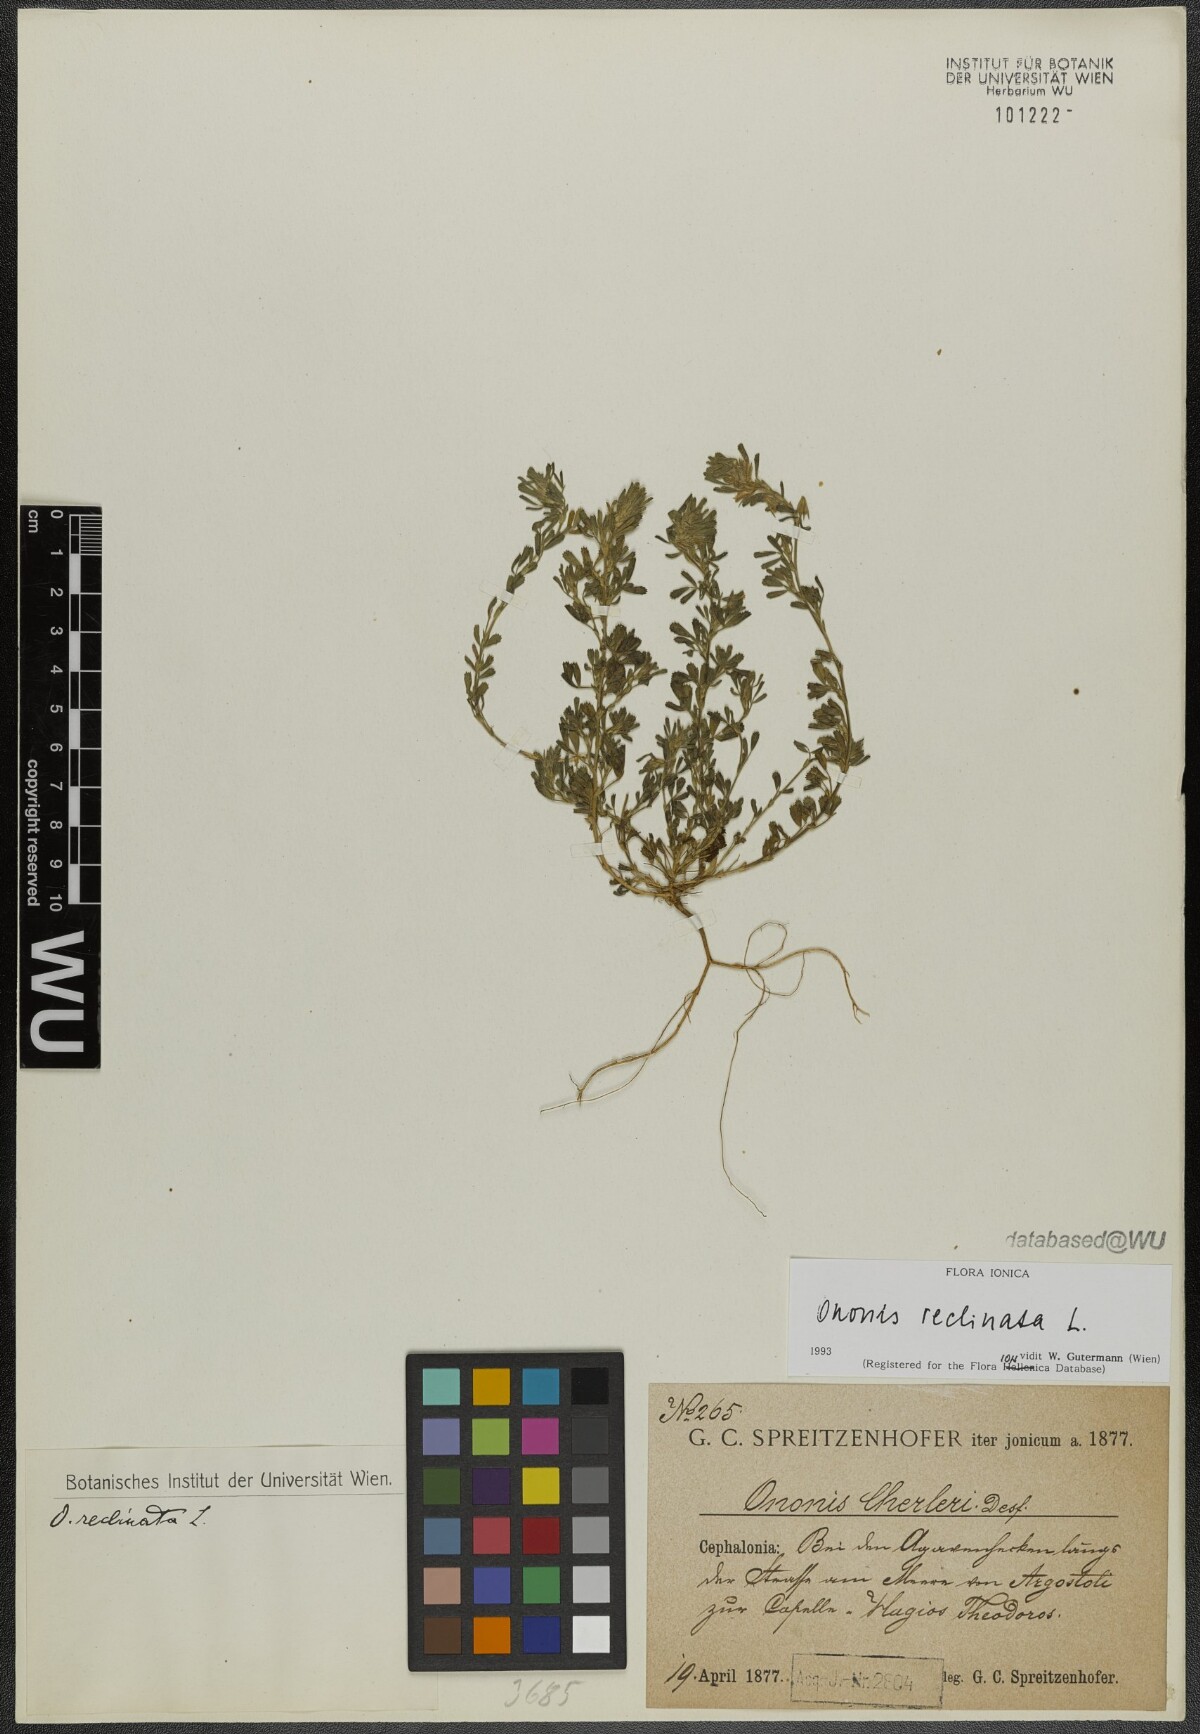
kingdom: Plantae
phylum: Tracheophyta
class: Magnoliopsida
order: Fabales
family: Fabaceae
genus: Ononis
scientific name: Ononis reclinata
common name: Small restharrow
